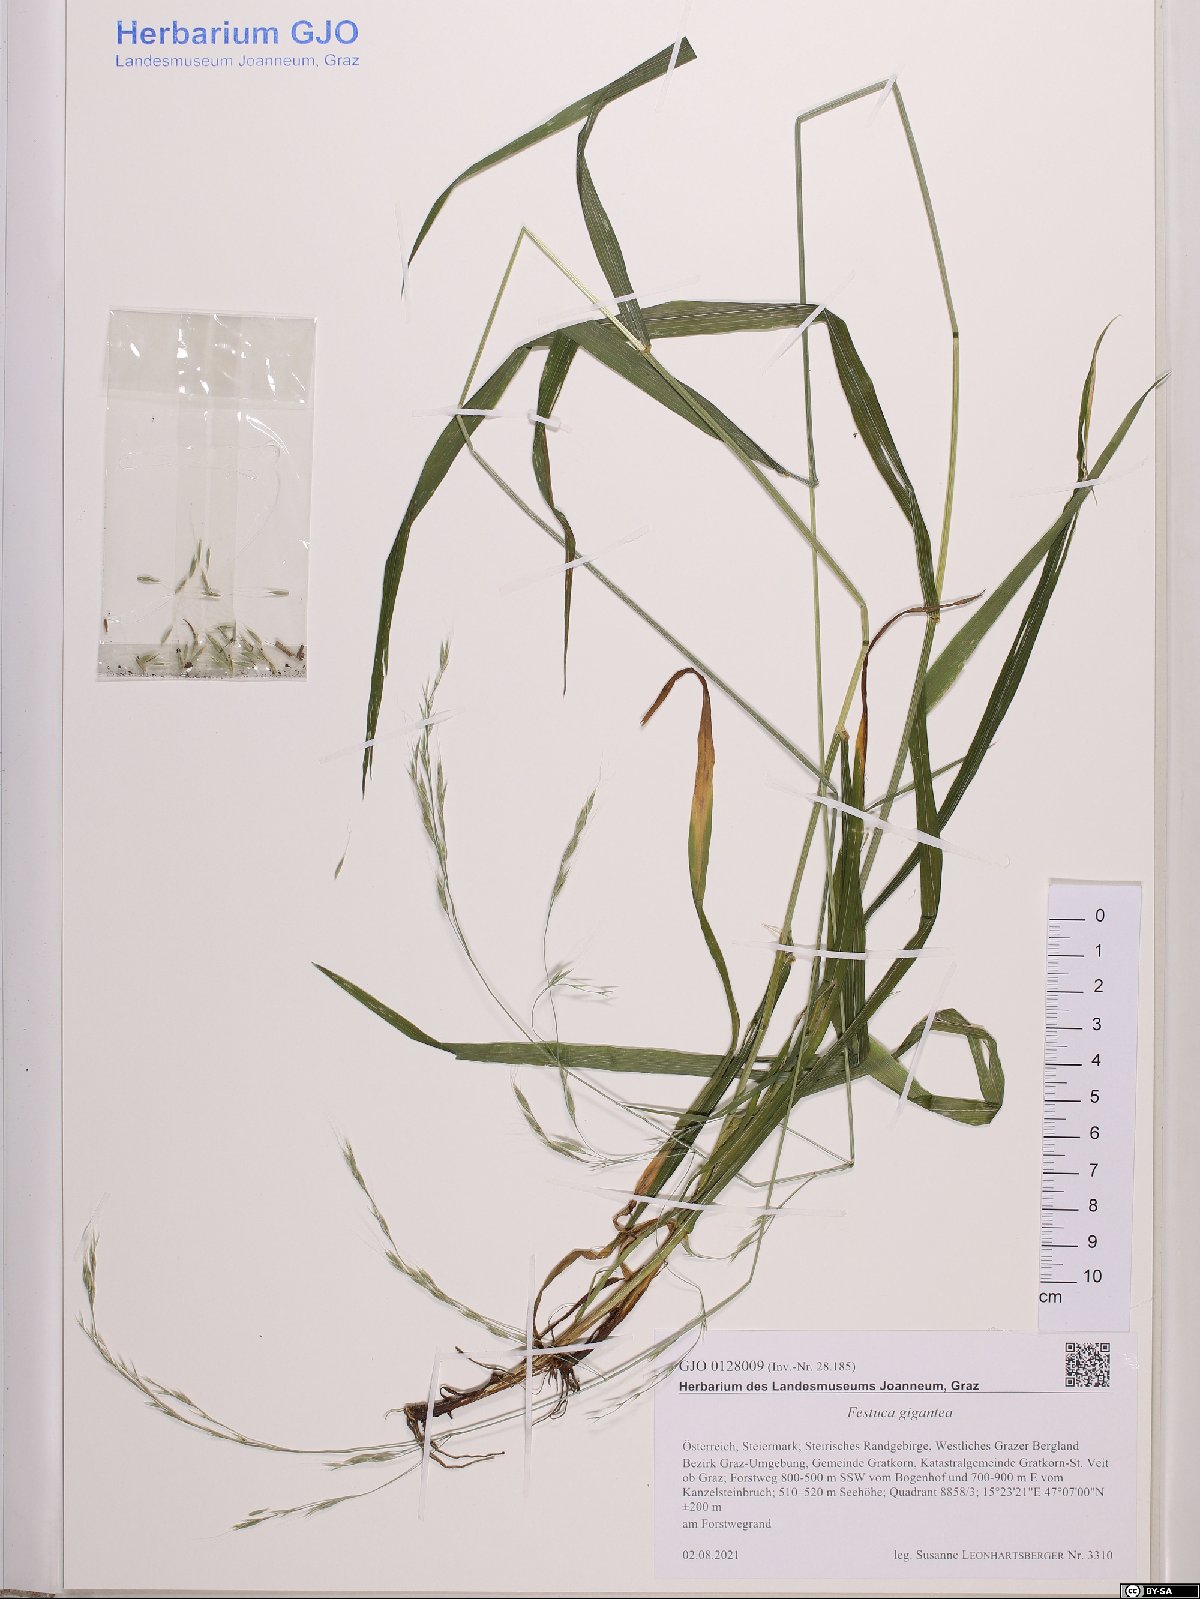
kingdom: Plantae
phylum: Tracheophyta
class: Liliopsida
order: Poales
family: Poaceae
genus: Lolium
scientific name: Lolium giganteum
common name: Giant fescue
